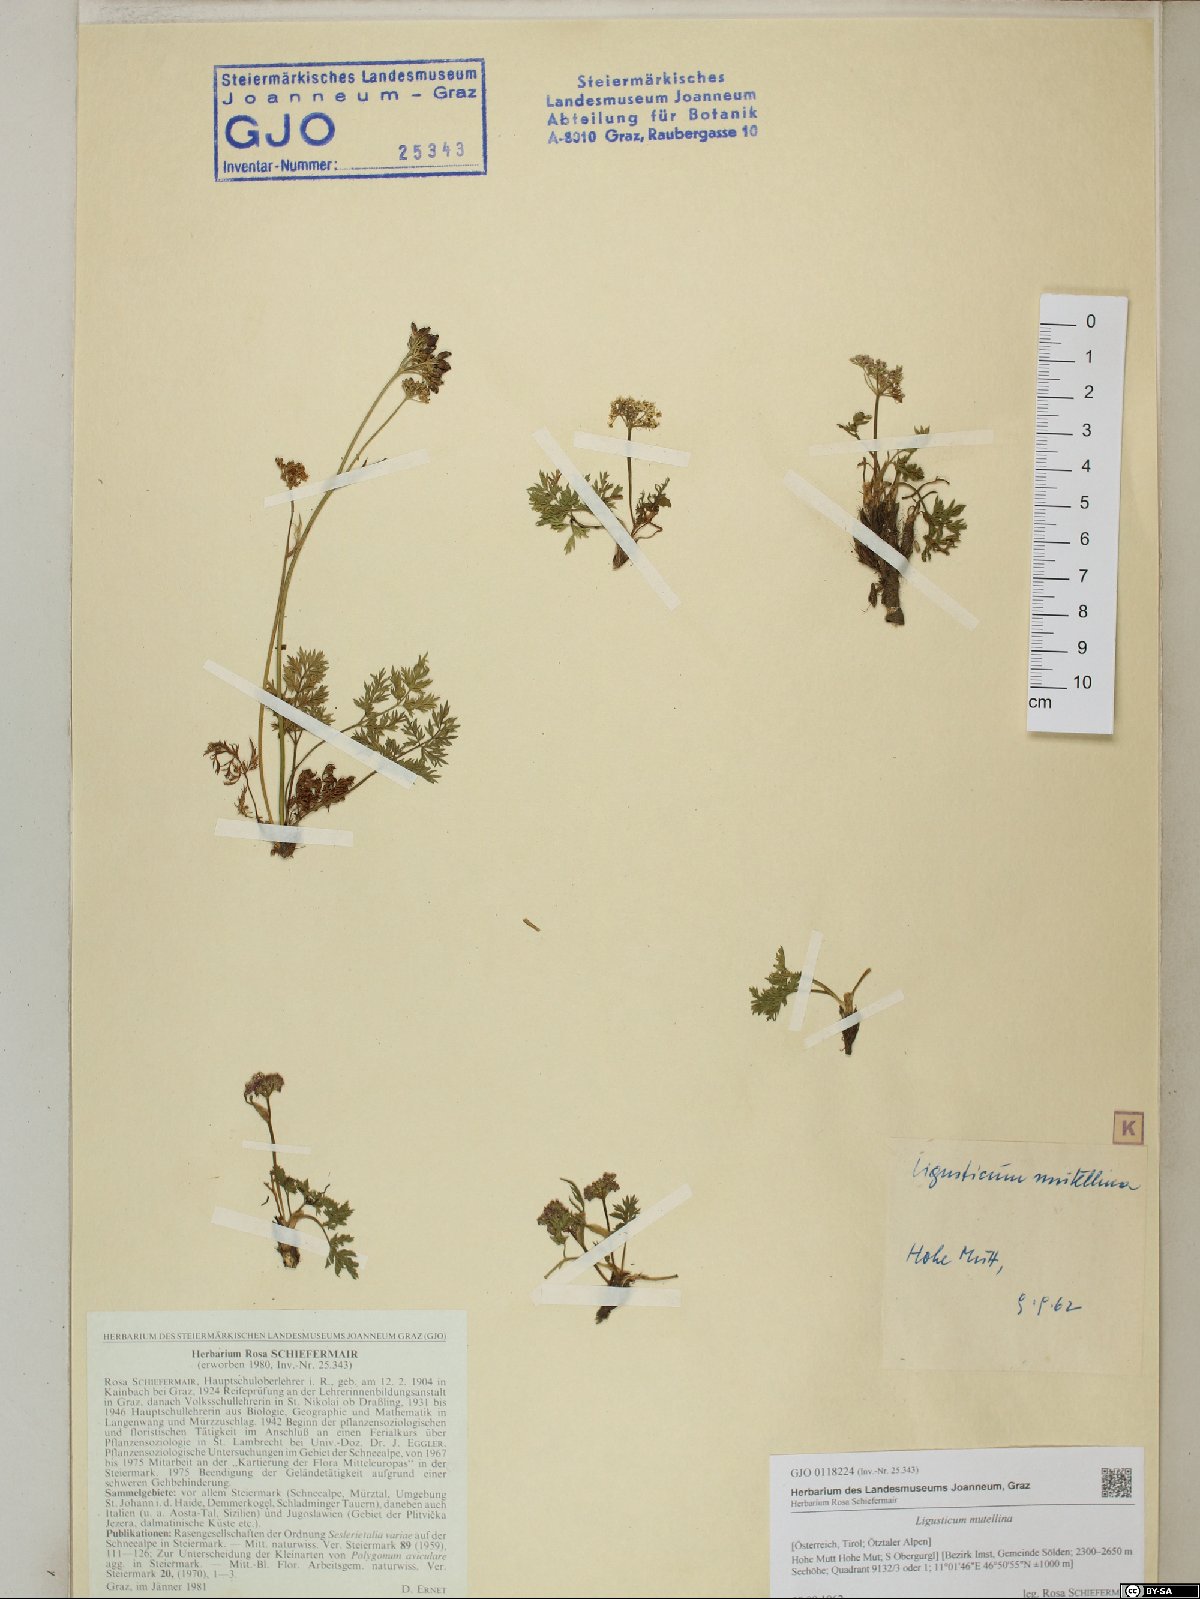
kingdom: Plantae
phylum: Tracheophyta
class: Magnoliopsida
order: Apiales
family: Apiaceae
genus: Mutellina
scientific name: Mutellina adonidifolia
